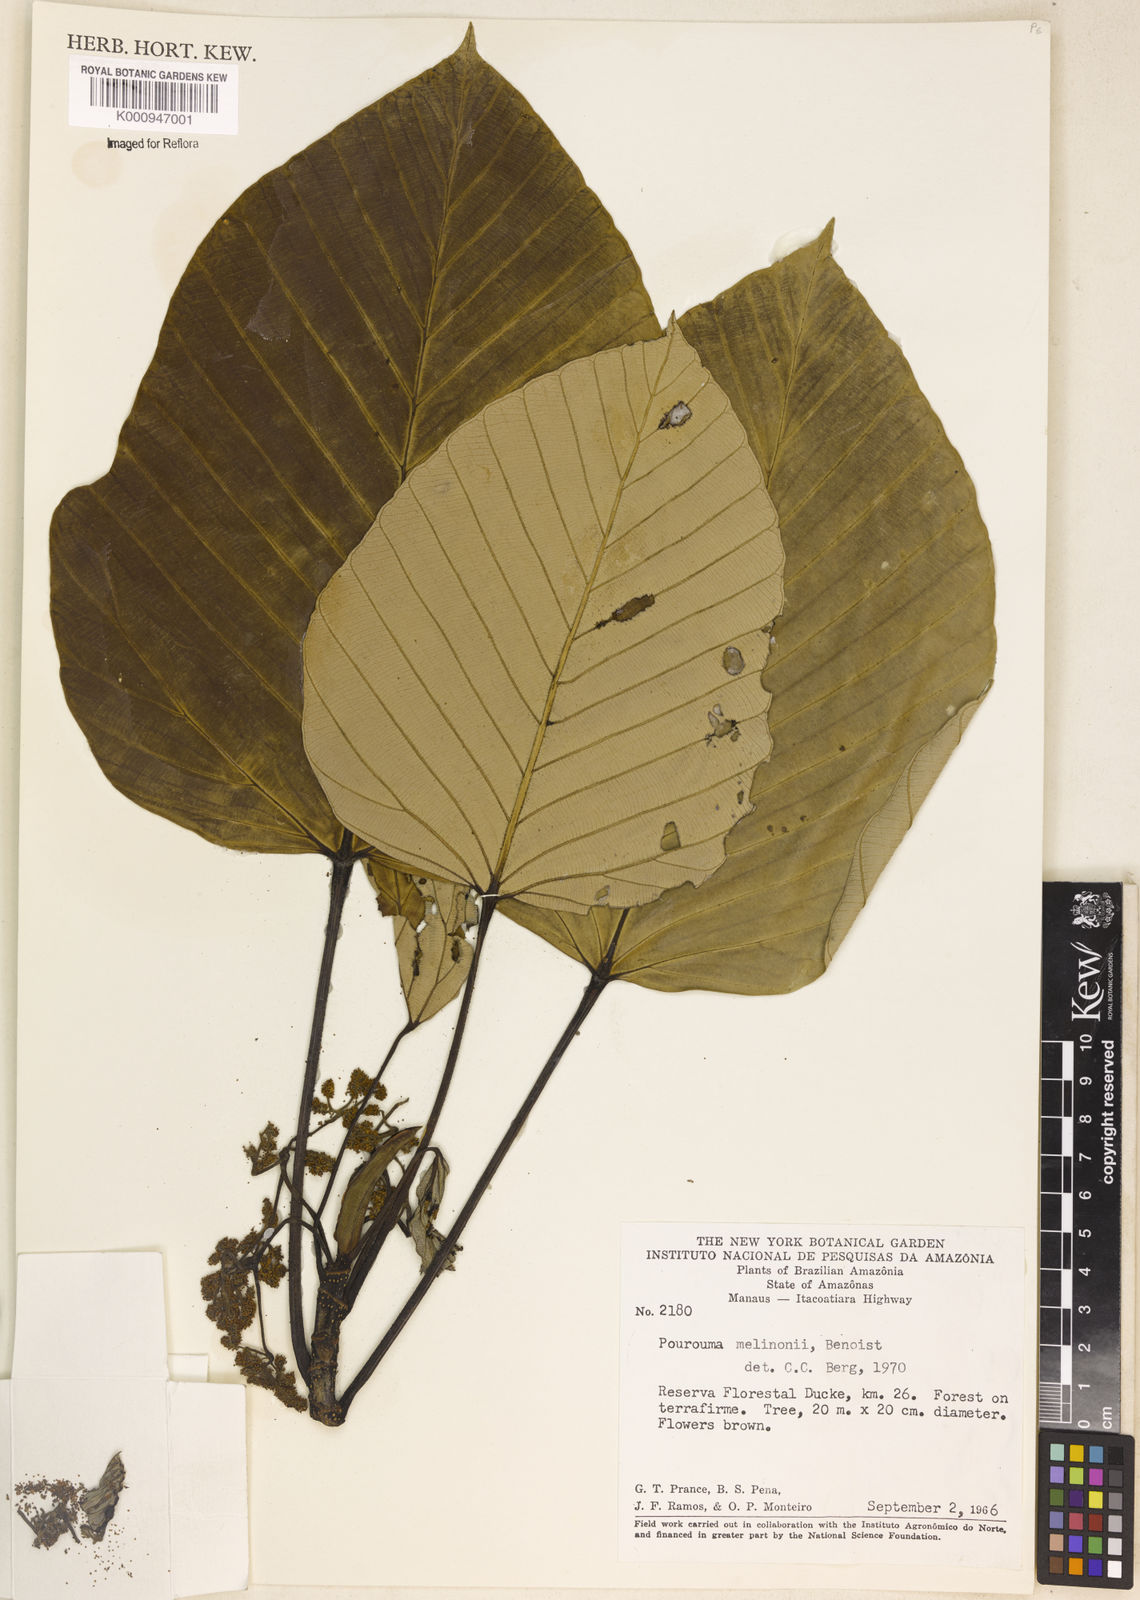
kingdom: Plantae
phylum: Tracheophyta
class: Magnoliopsida
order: Rosales
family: Urticaceae
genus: Pourouma
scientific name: Pourouma melinonii
